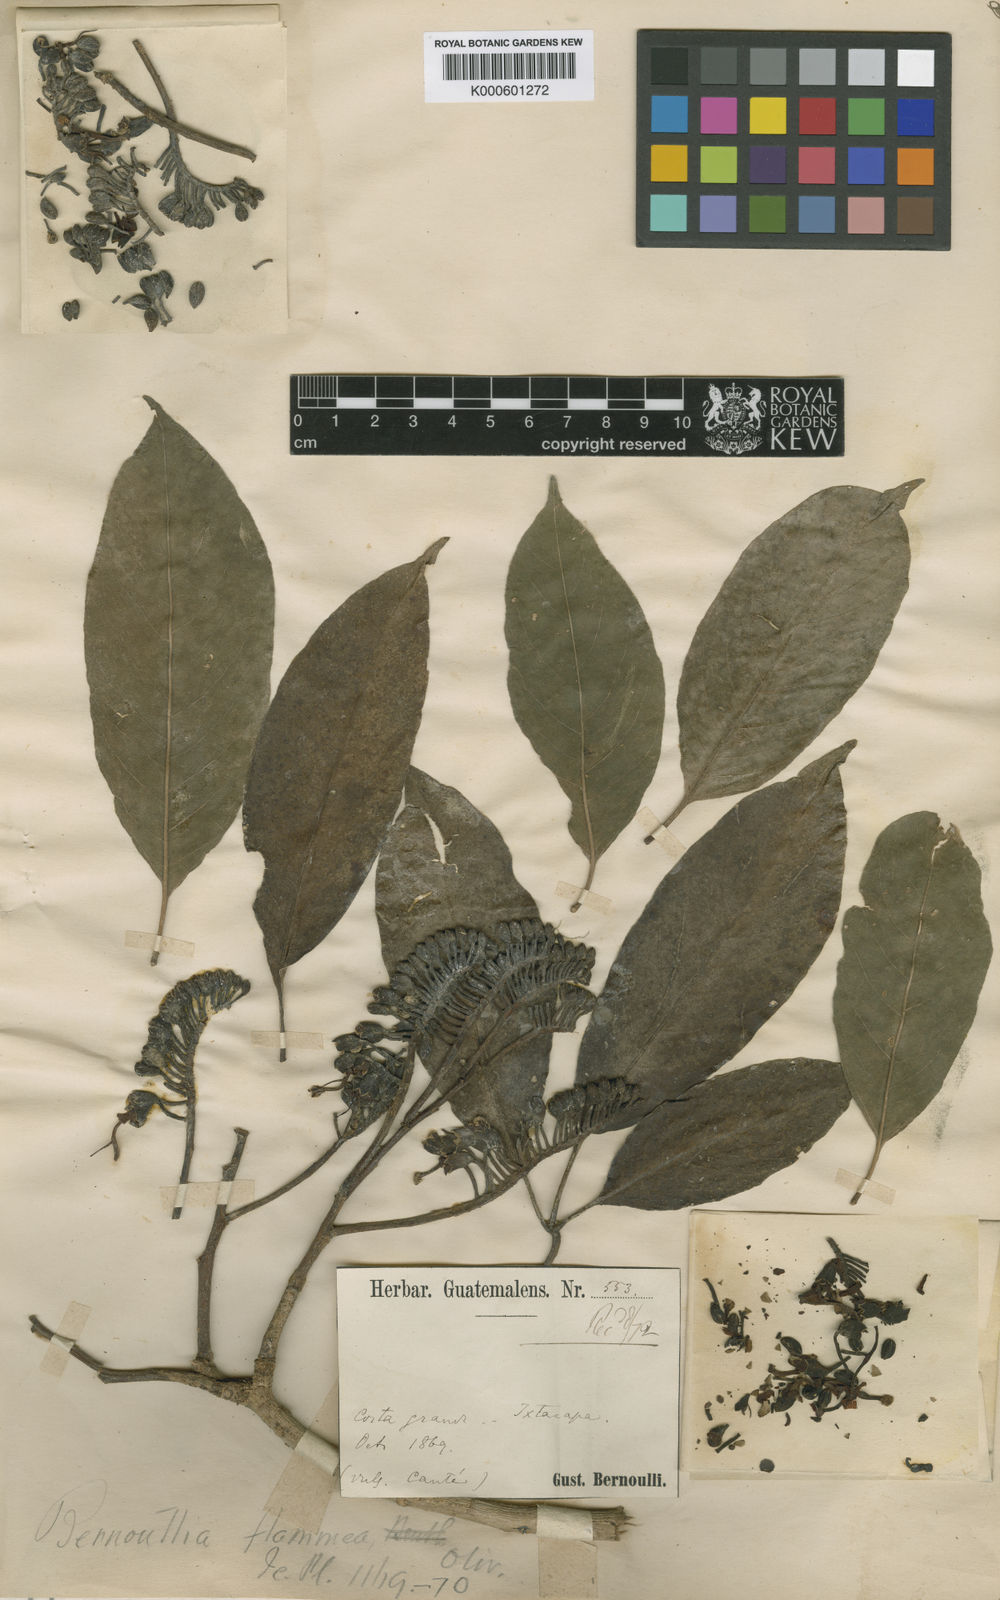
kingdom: Plantae
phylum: Tracheophyta
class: Magnoliopsida
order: Malvales
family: Malvaceae
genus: Bernoullia
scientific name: Bernoullia flammea
